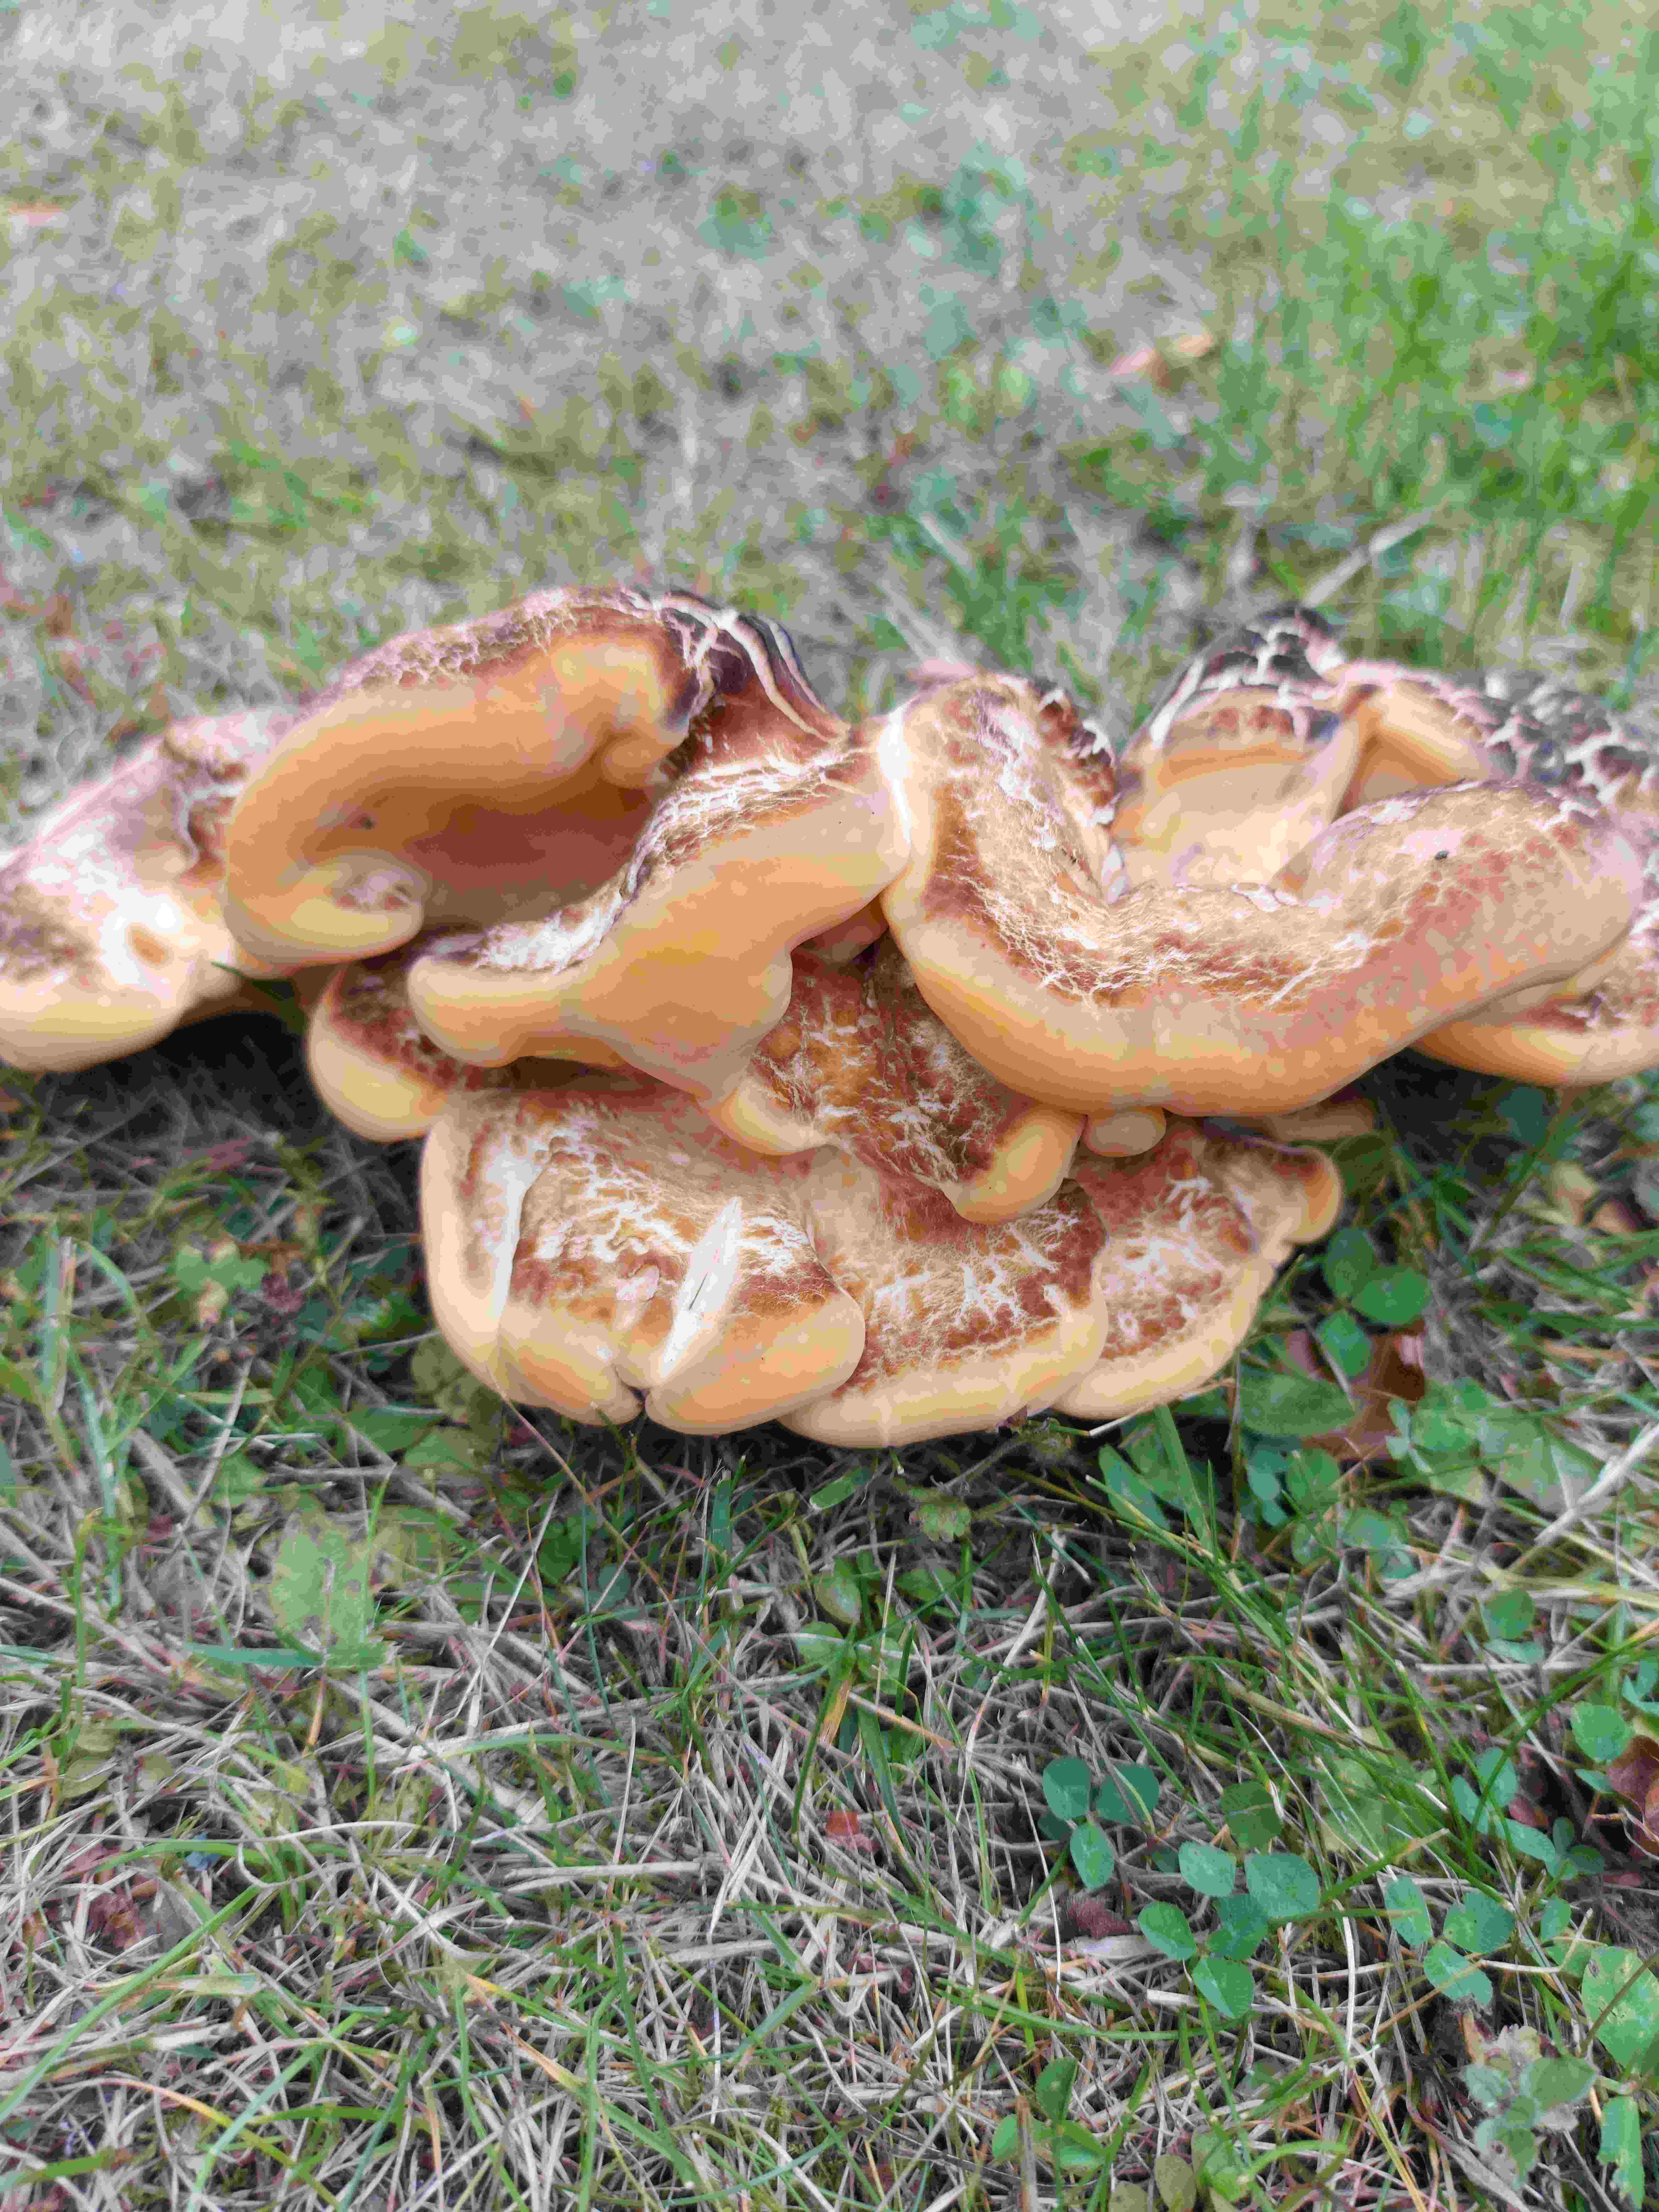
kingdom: Fungi
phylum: Basidiomycota
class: Agaricomycetes
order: Polyporales
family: Meripilaceae
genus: Meripilus
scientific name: Meripilus giganteus
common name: kæmpeporesvamp
